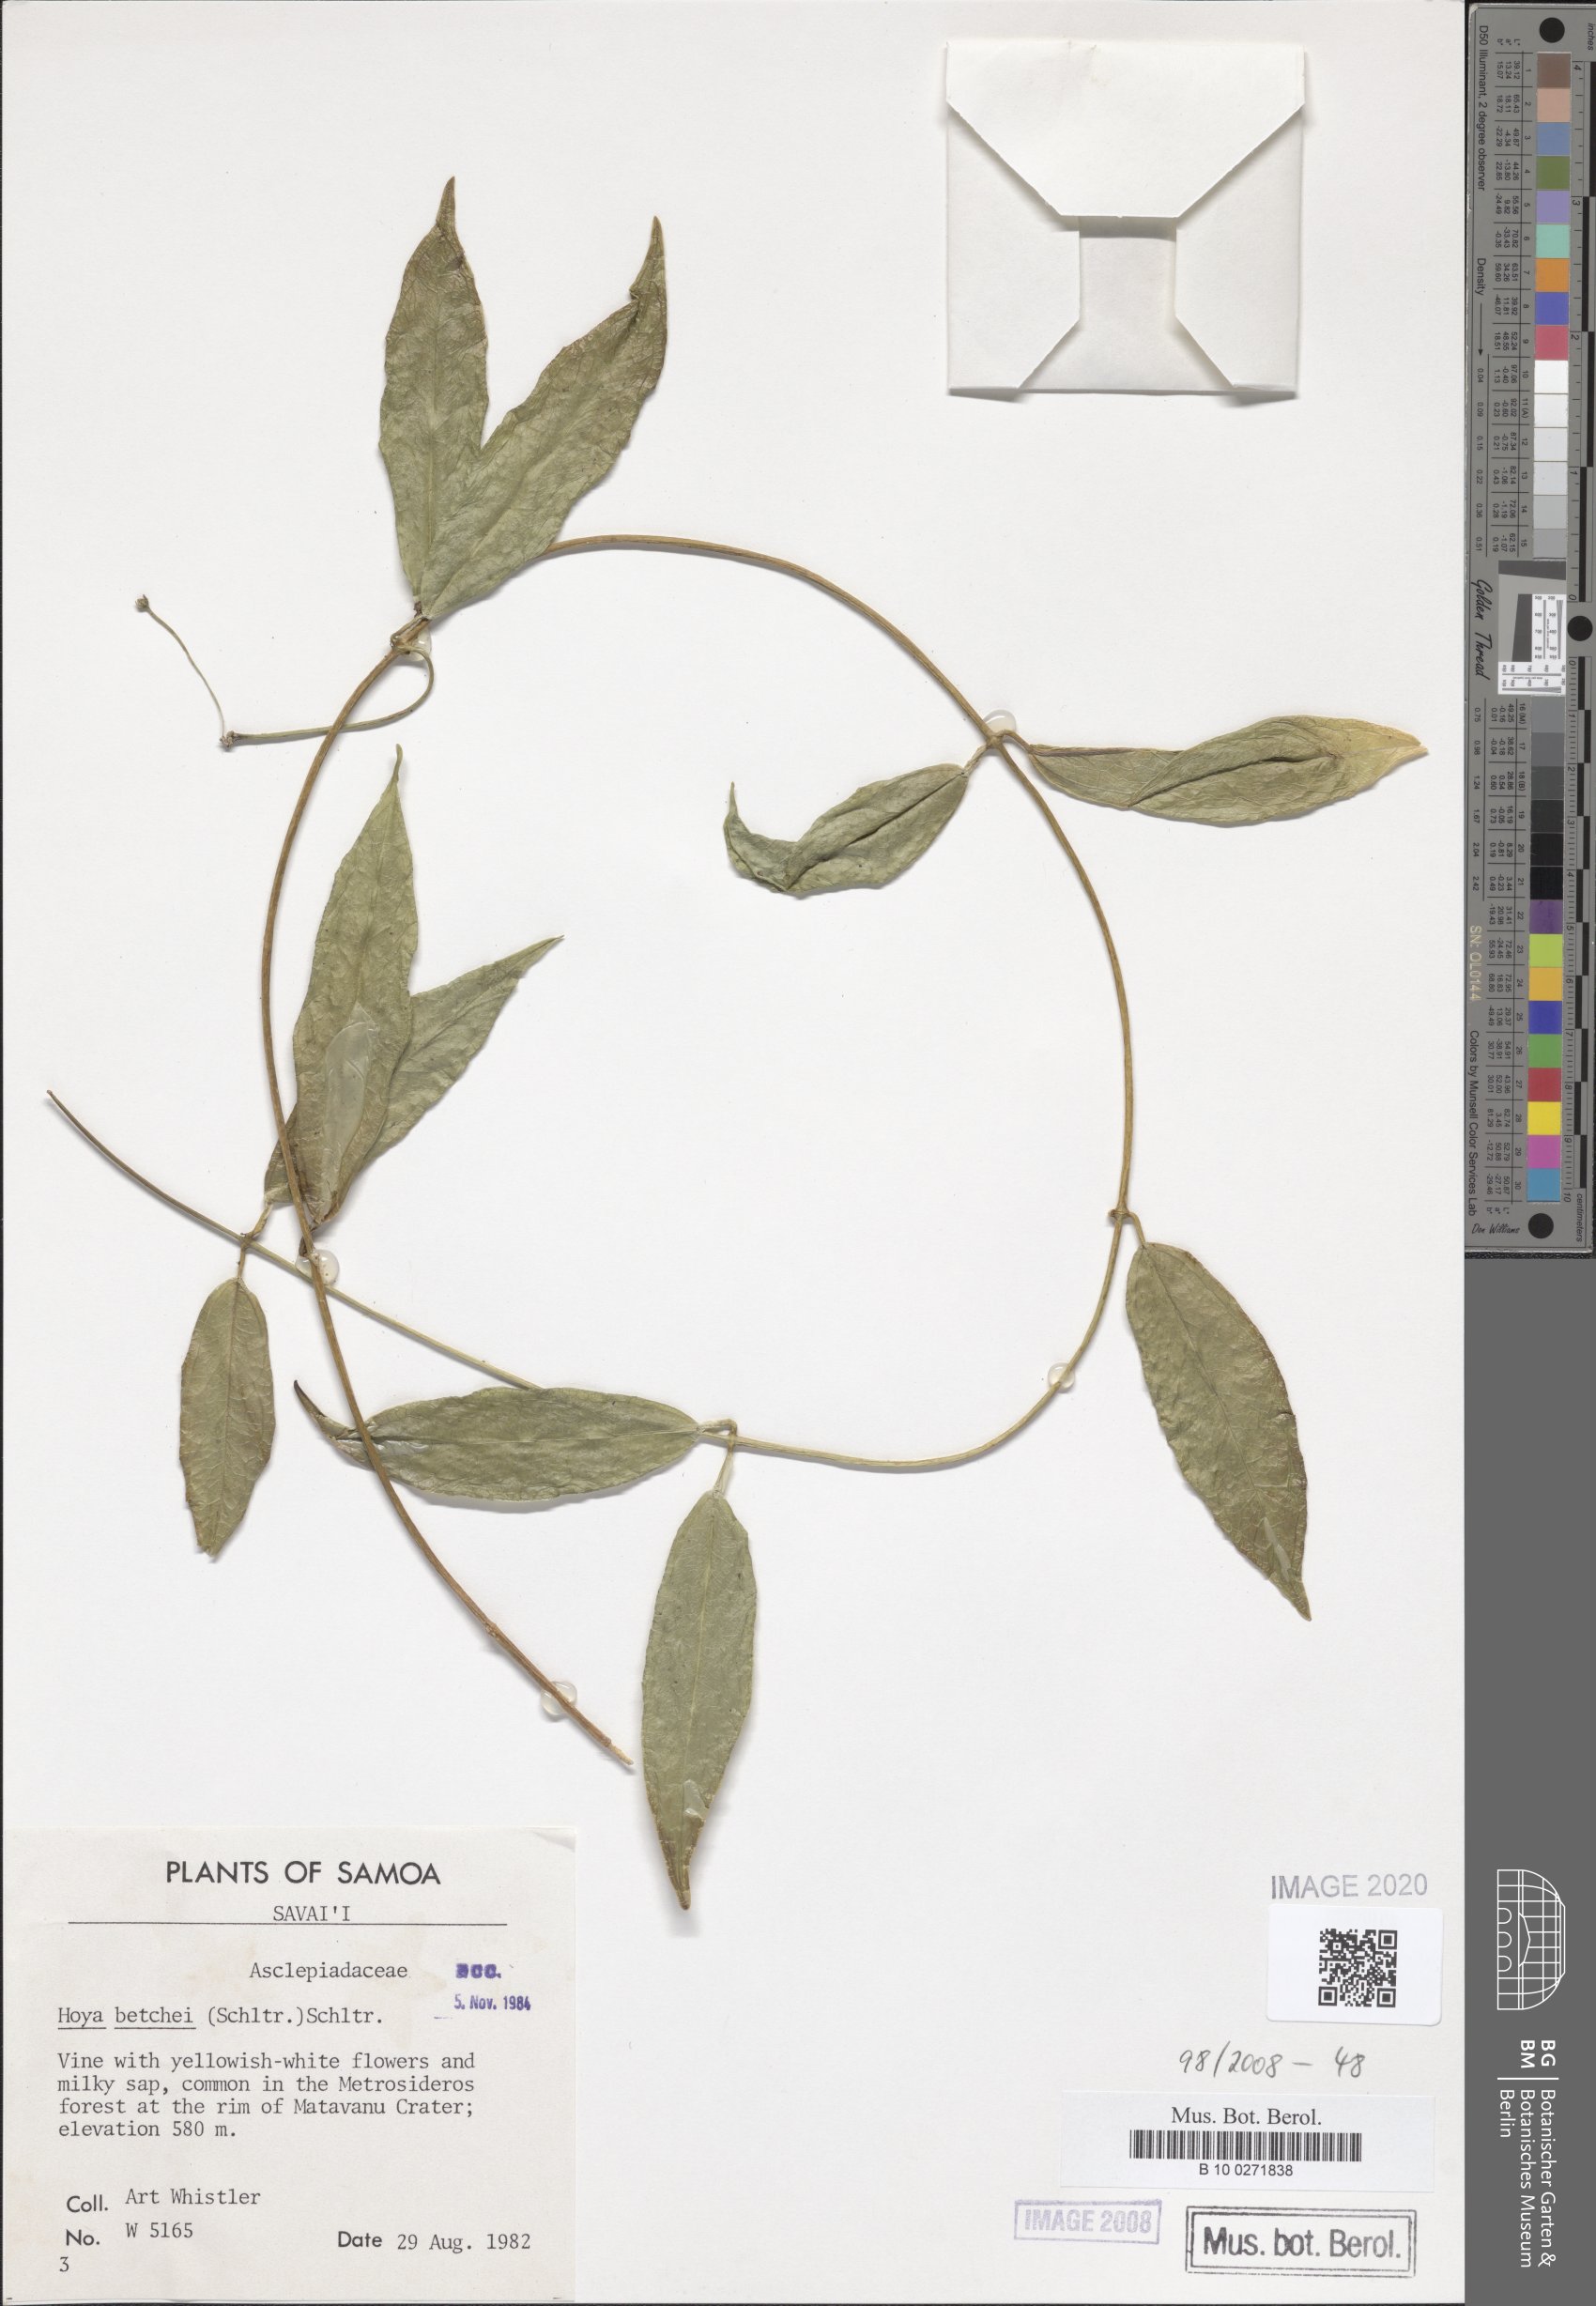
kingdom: Plantae
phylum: Tracheophyta
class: Magnoliopsida
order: Gentianales
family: Apocynaceae
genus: Hoya
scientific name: Hoya betchei
